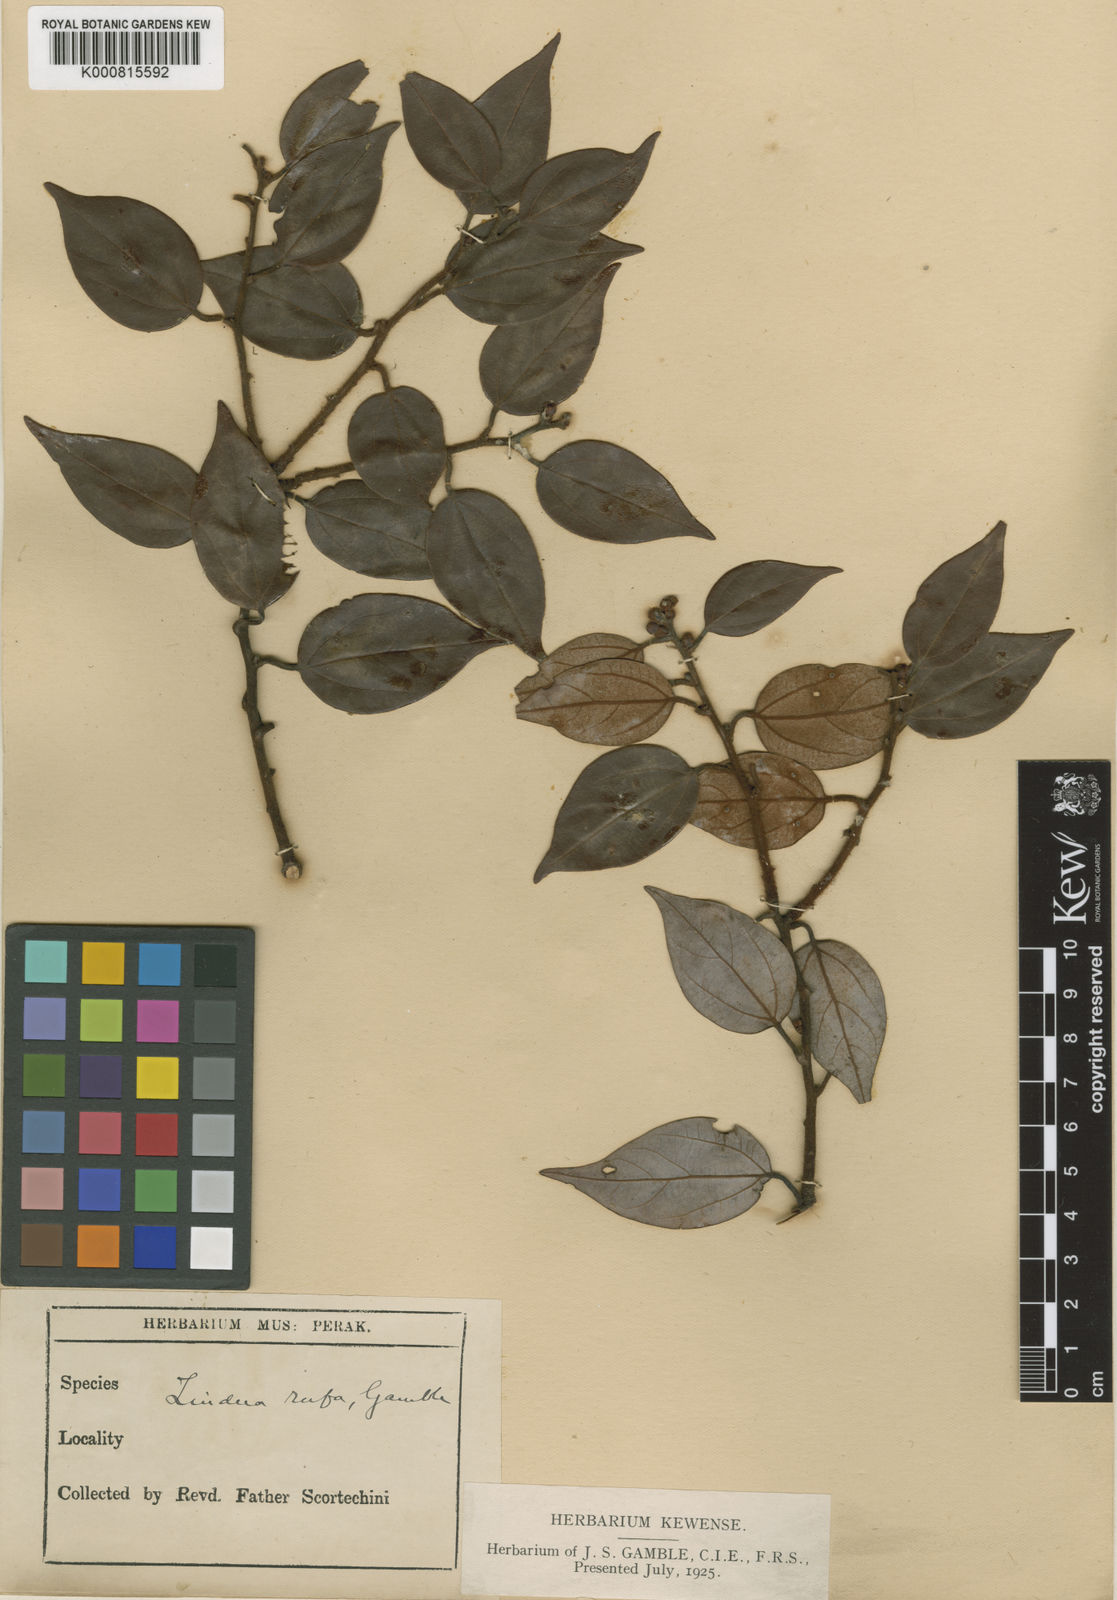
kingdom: Plantae
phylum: Tracheophyta
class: Magnoliopsida
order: Laurales
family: Lauraceae
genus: Lindera
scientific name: Lindera rufa
